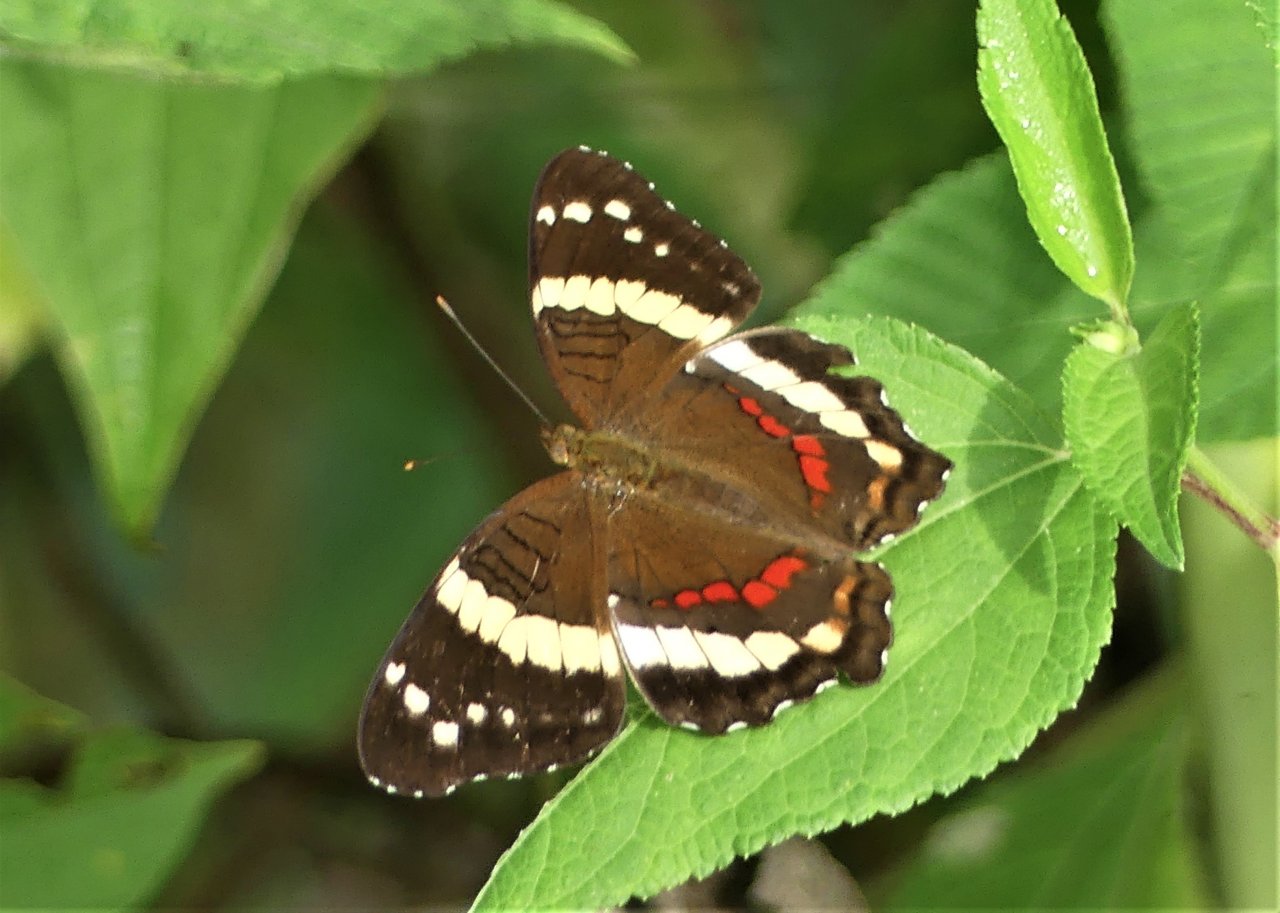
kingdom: Animalia
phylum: Arthropoda
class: Insecta
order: Lepidoptera
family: Nymphalidae
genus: Anartia
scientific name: Anartia fatima
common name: Banded Peacock
